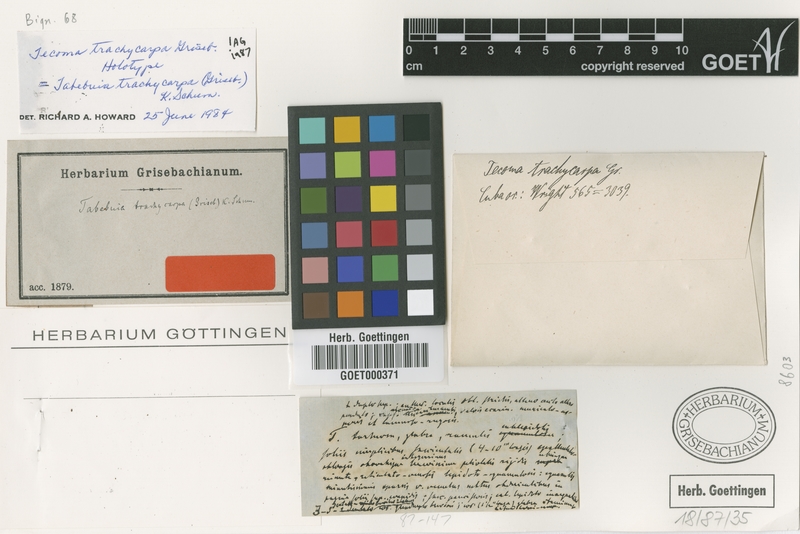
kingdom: Plantae
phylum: Tracheophyta
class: Magnoliopsida
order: Lamiales
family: Bignoniaceae
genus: Tabebuia
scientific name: Tabebuia trachycarpa
